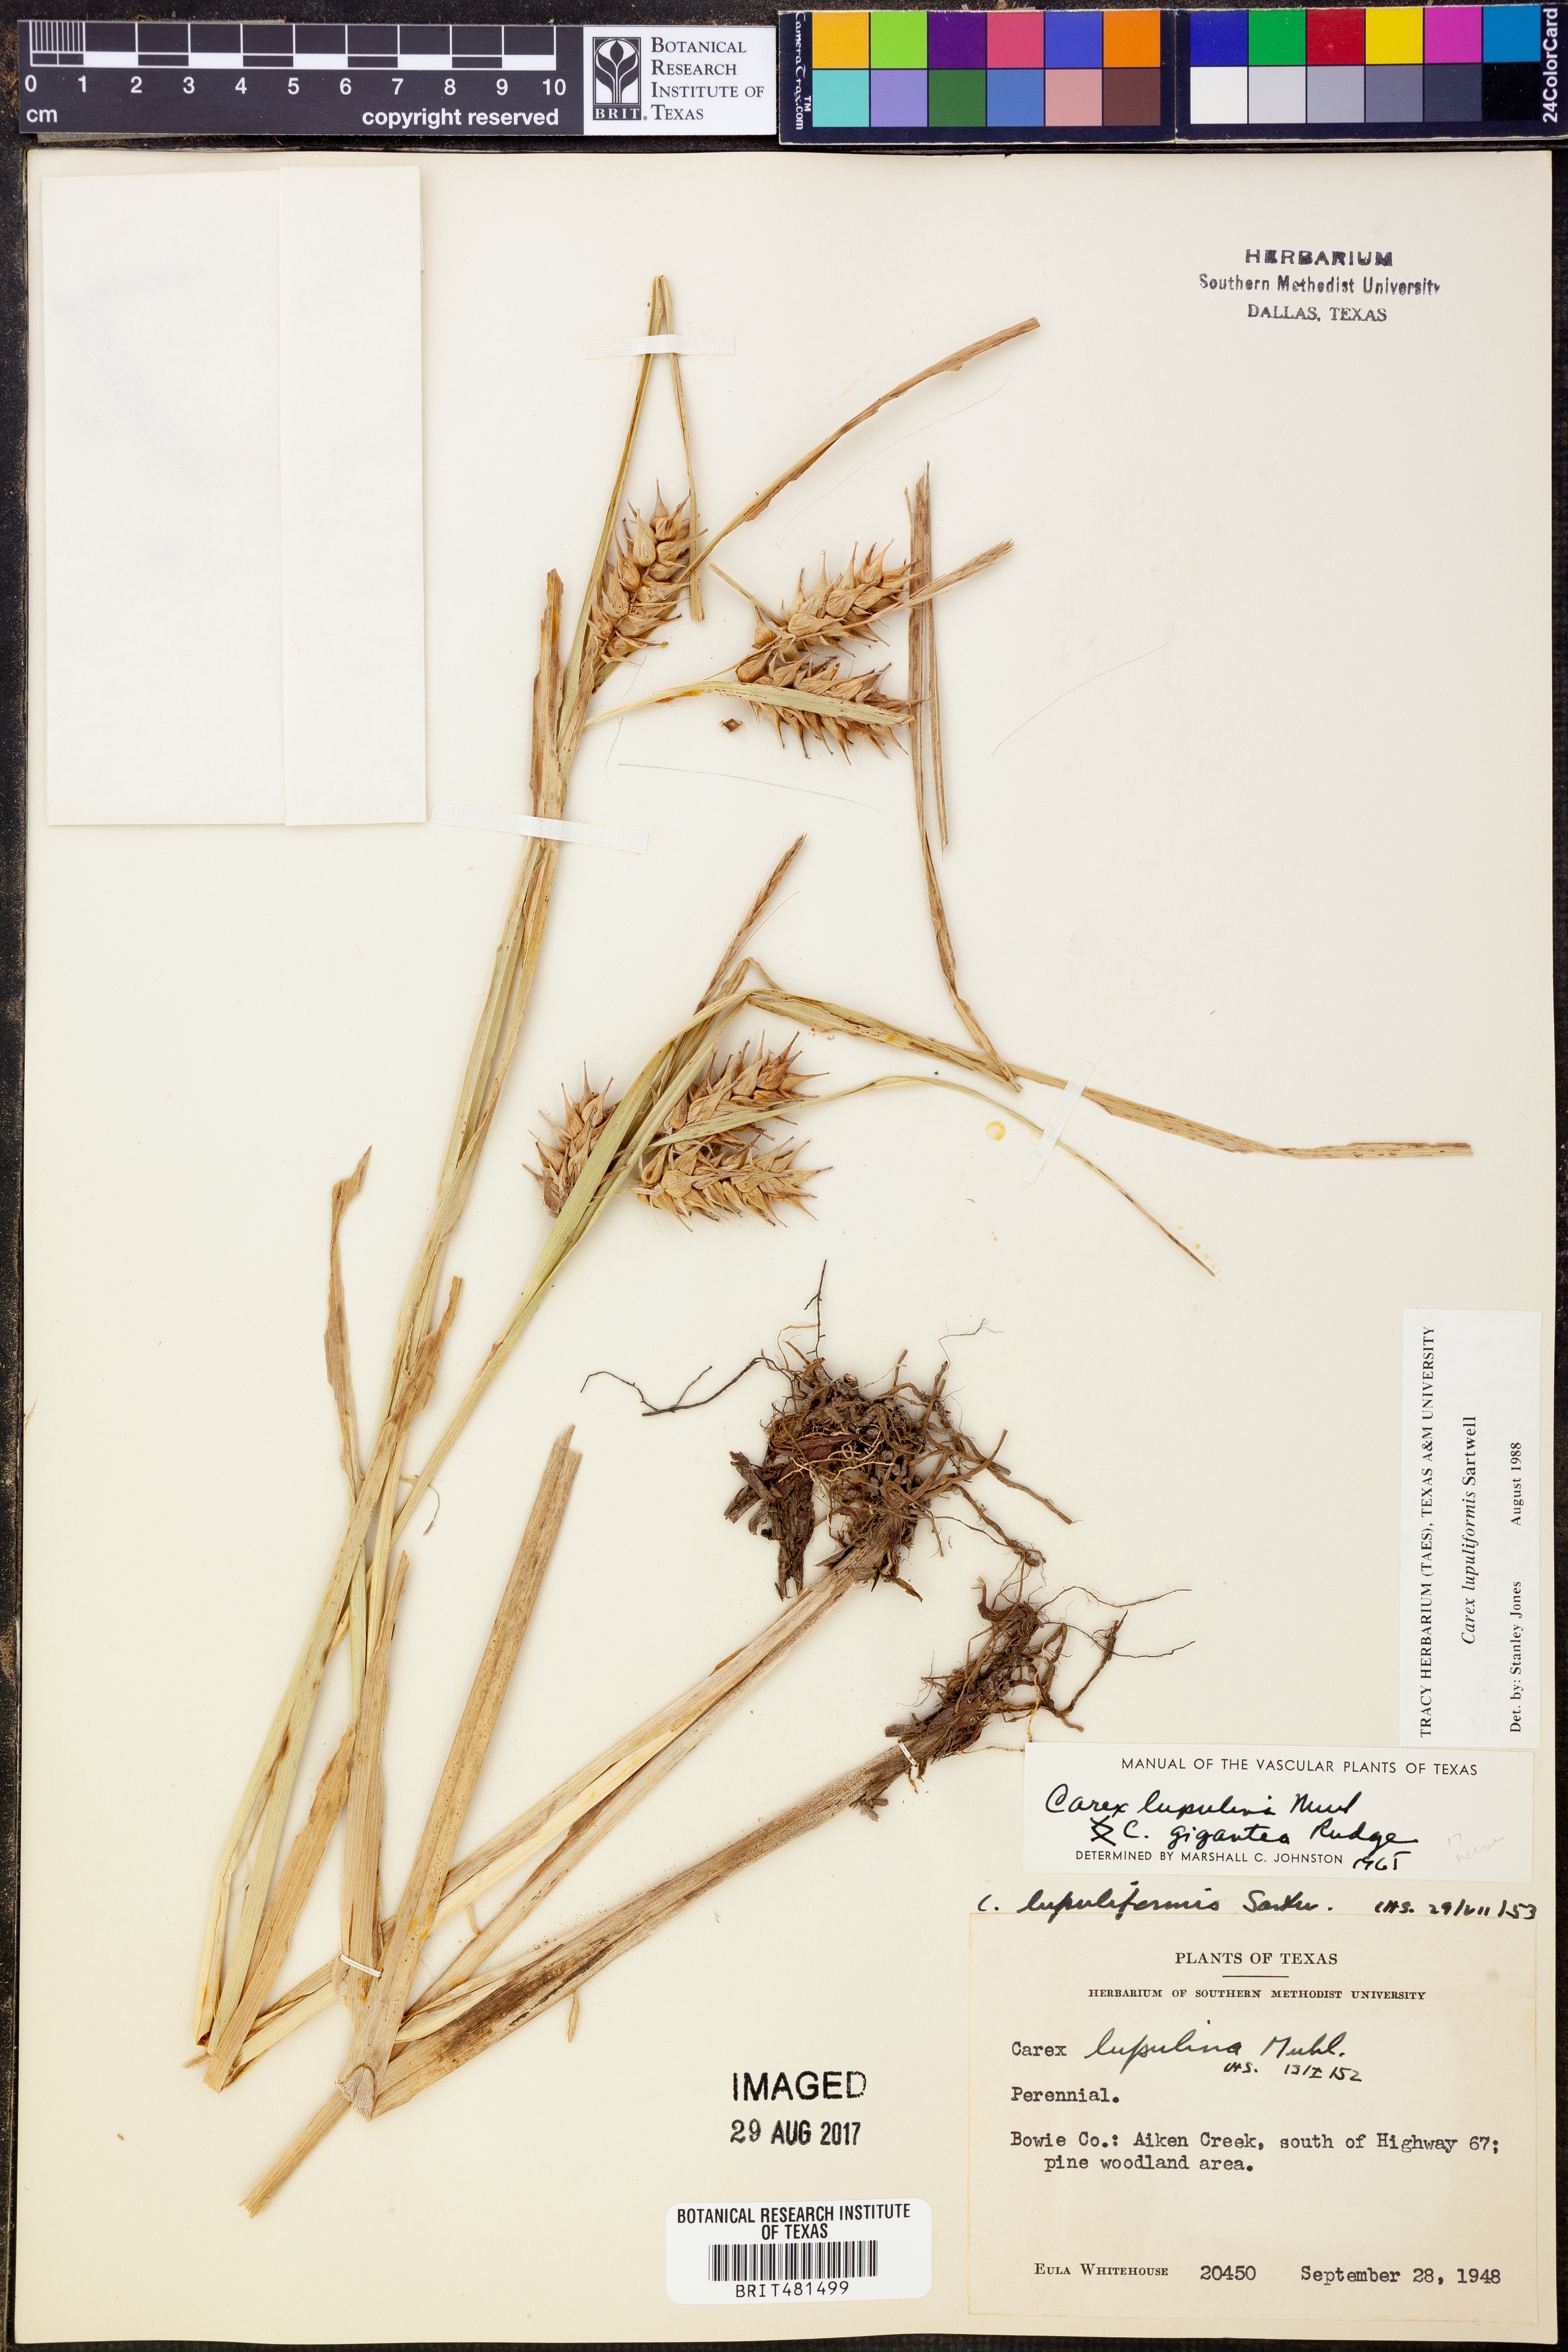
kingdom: Plantae
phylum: Tracheophyta
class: Liliopsida
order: Poales
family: Cyperaceae
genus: Carex
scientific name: Carex lupuliformis
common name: False hop sedge
